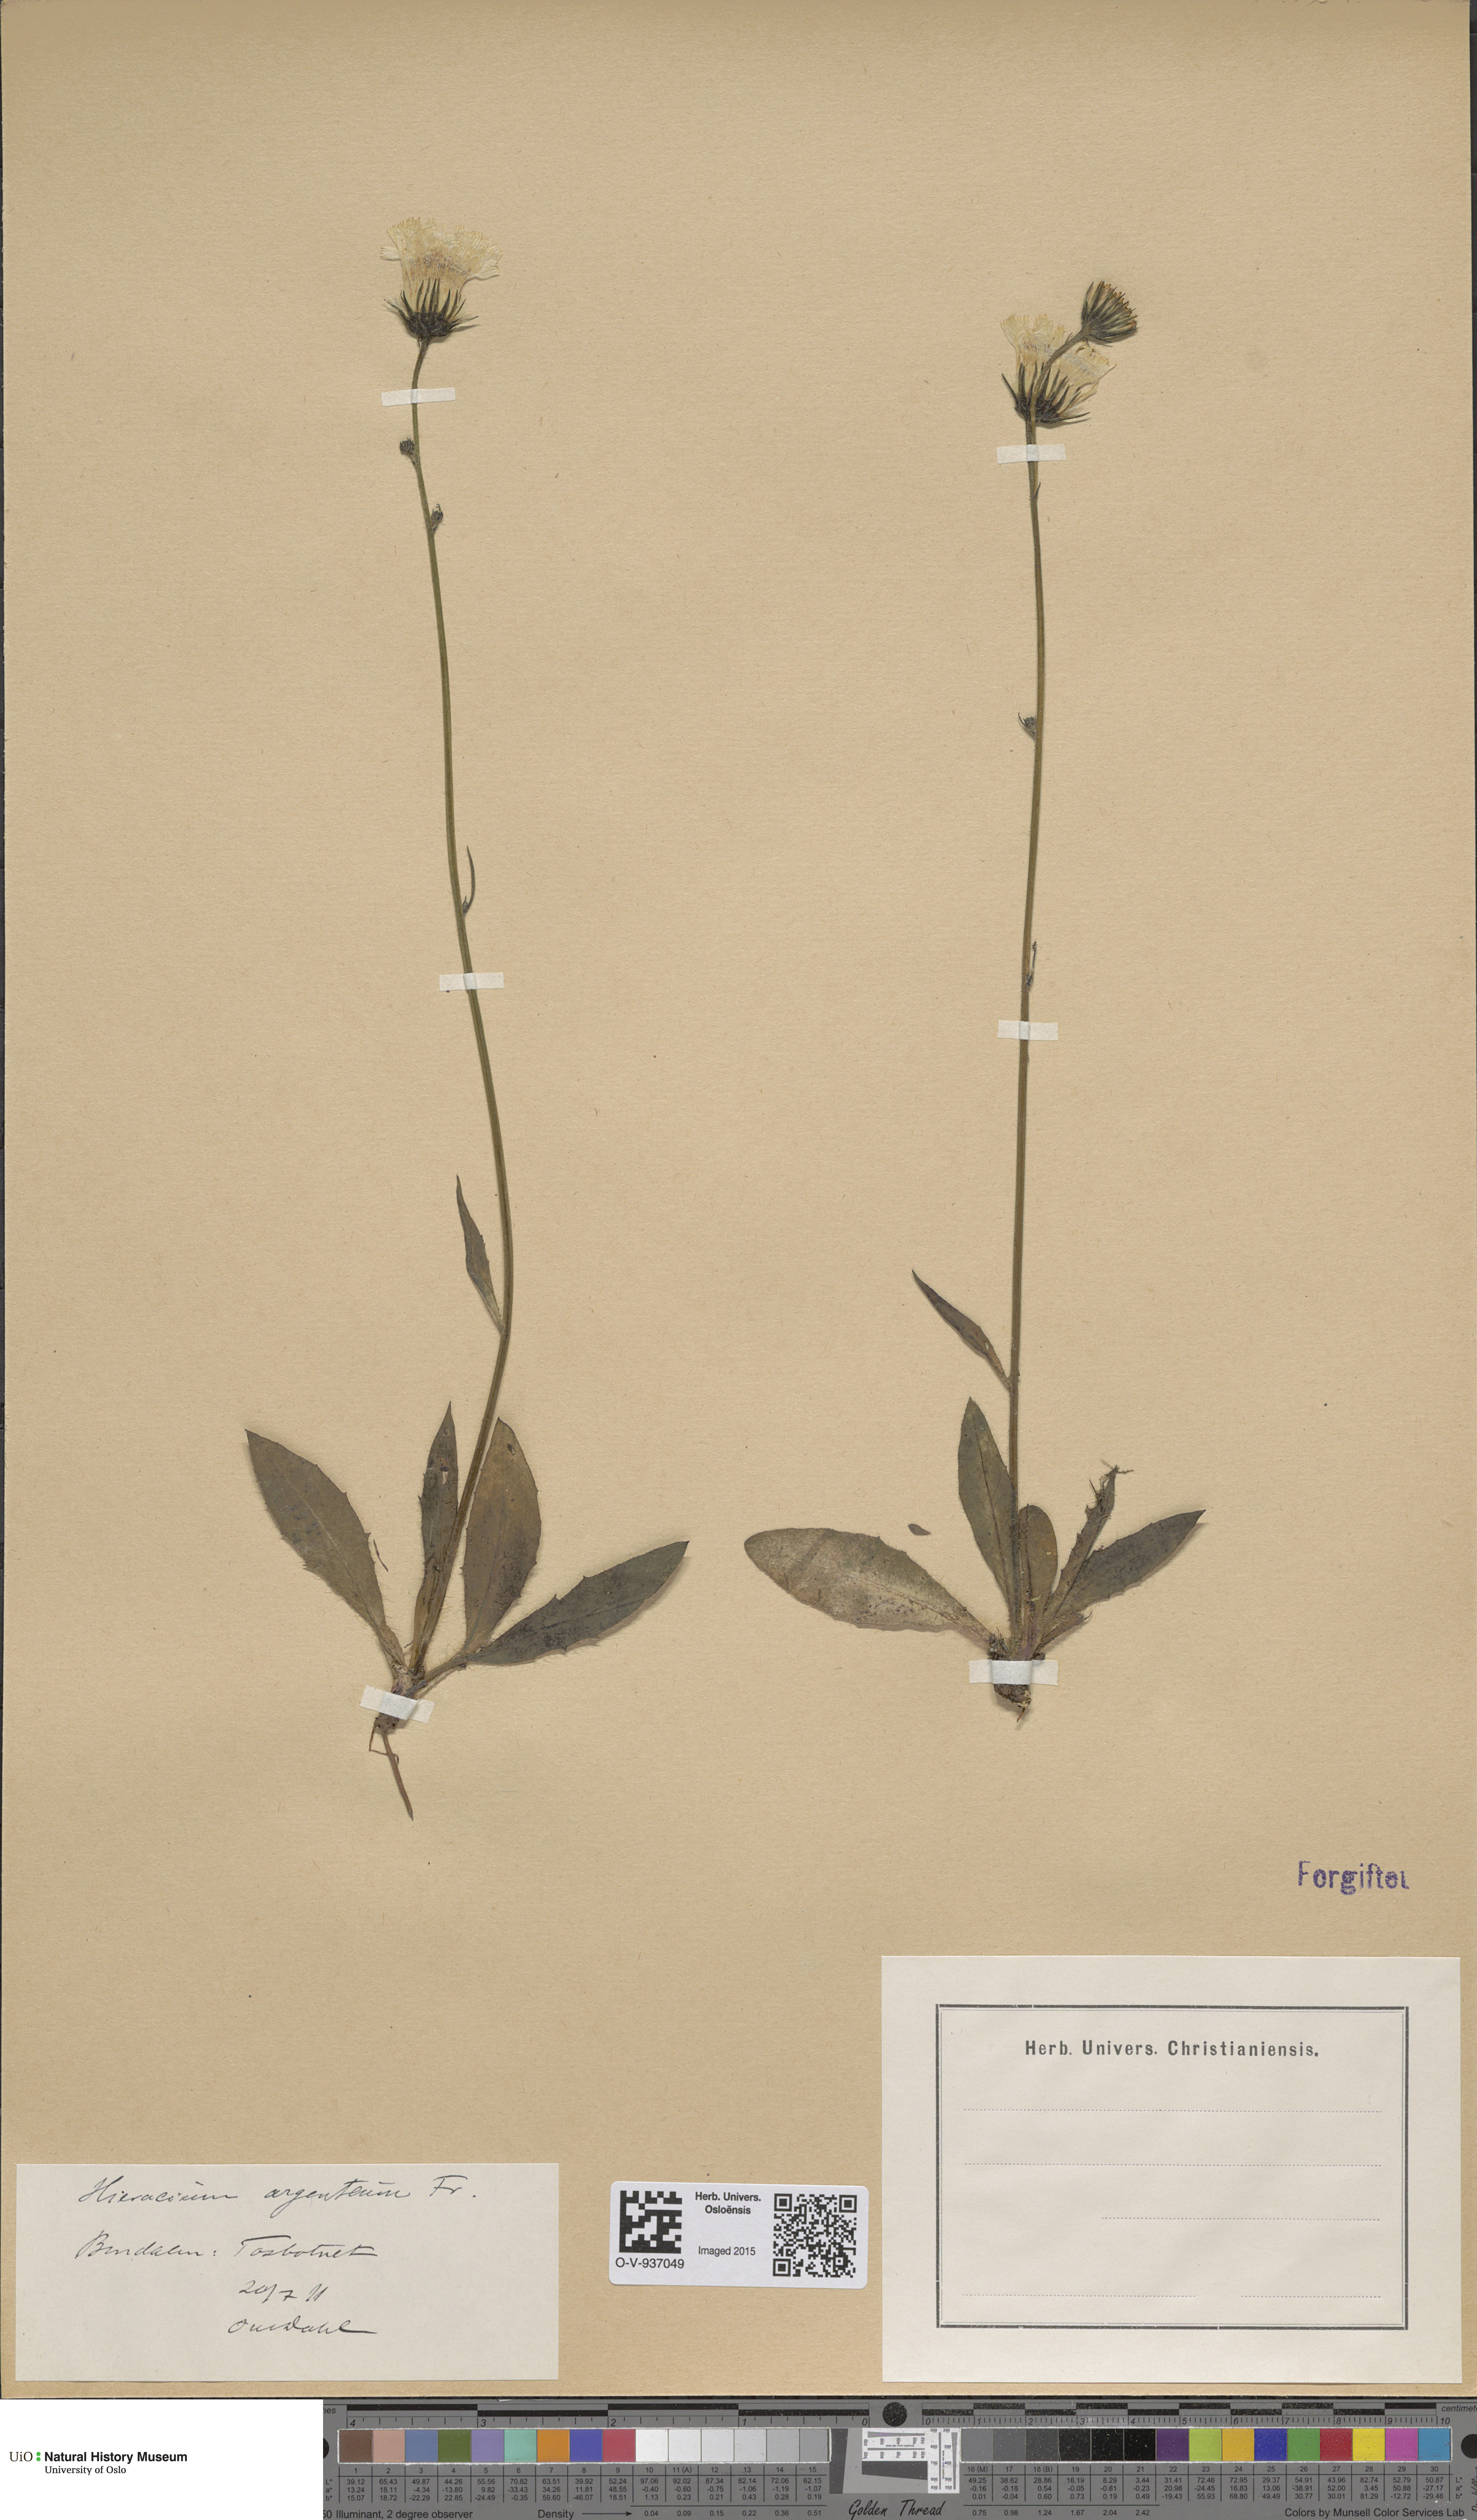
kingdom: Plantae
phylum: Tracheophyta
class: Magnoliopsida
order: Asterales
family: Asteraceae
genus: Hieracium
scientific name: Hieracium argenteum
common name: Silver hawkweed
